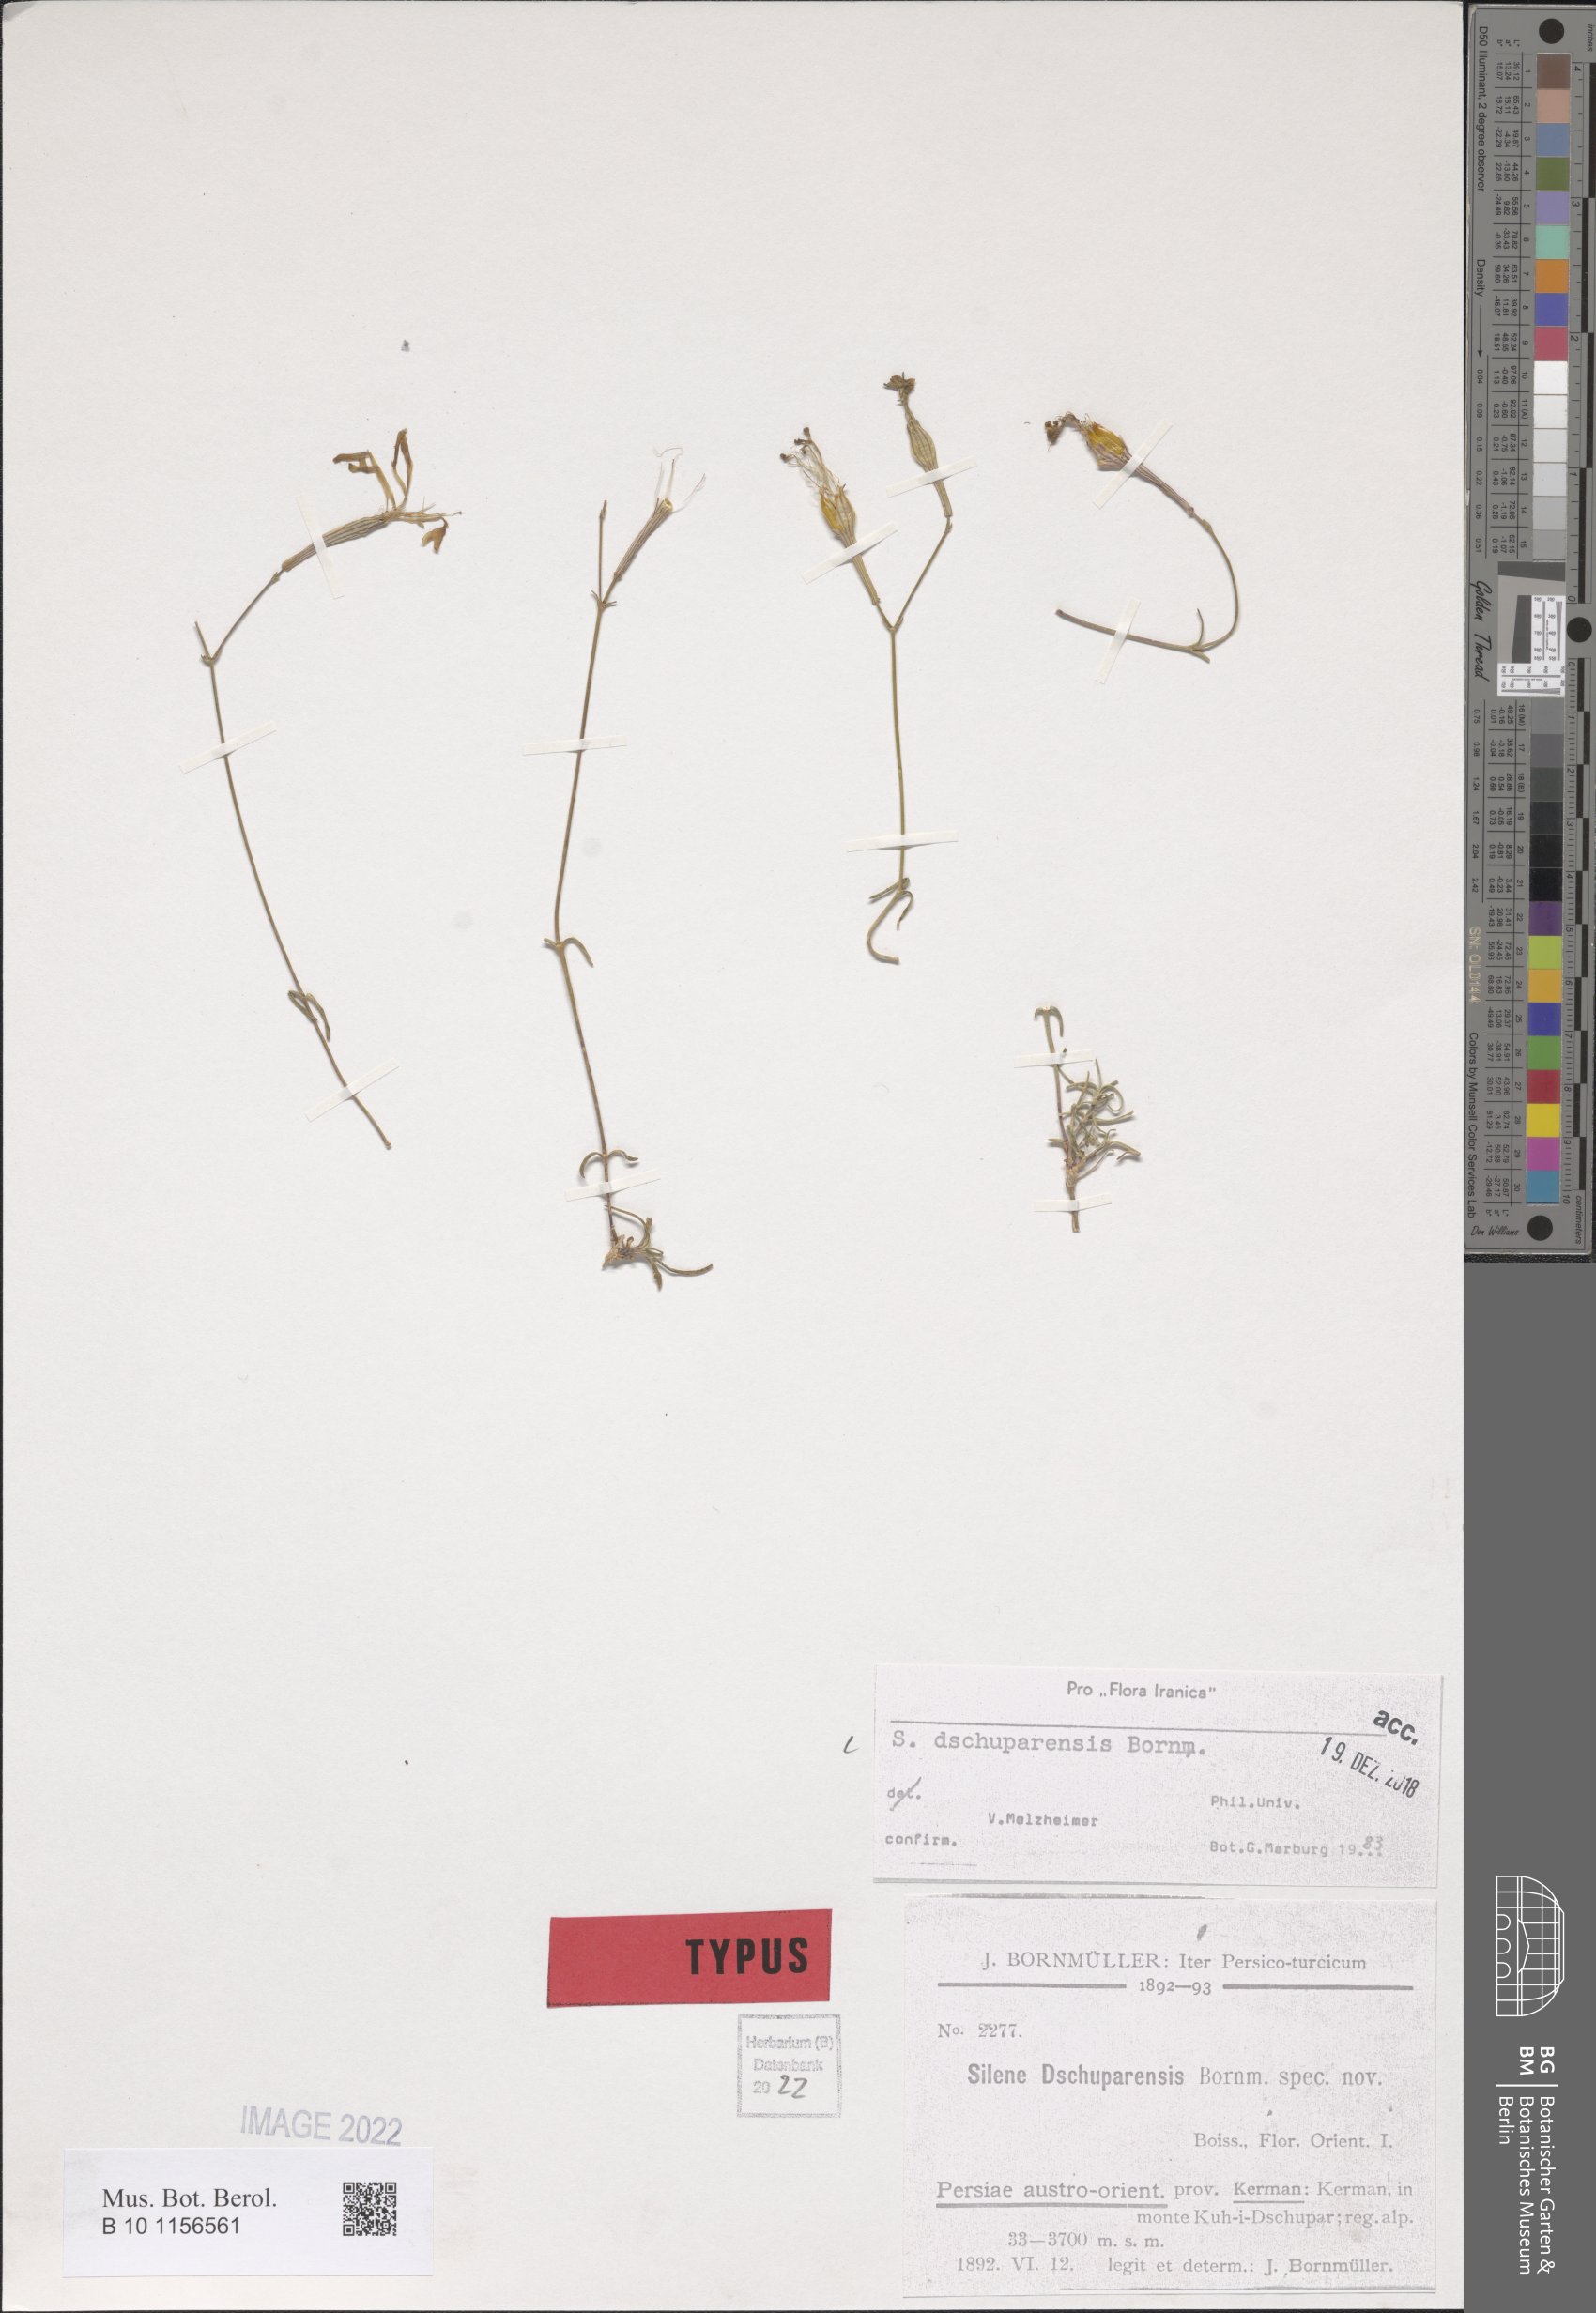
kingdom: Plantae
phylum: Tracheophyta
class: Magnoliopsida
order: Caryophyllales
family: Caryophyllaceae
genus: Silene
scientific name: Silene dschuparensis
